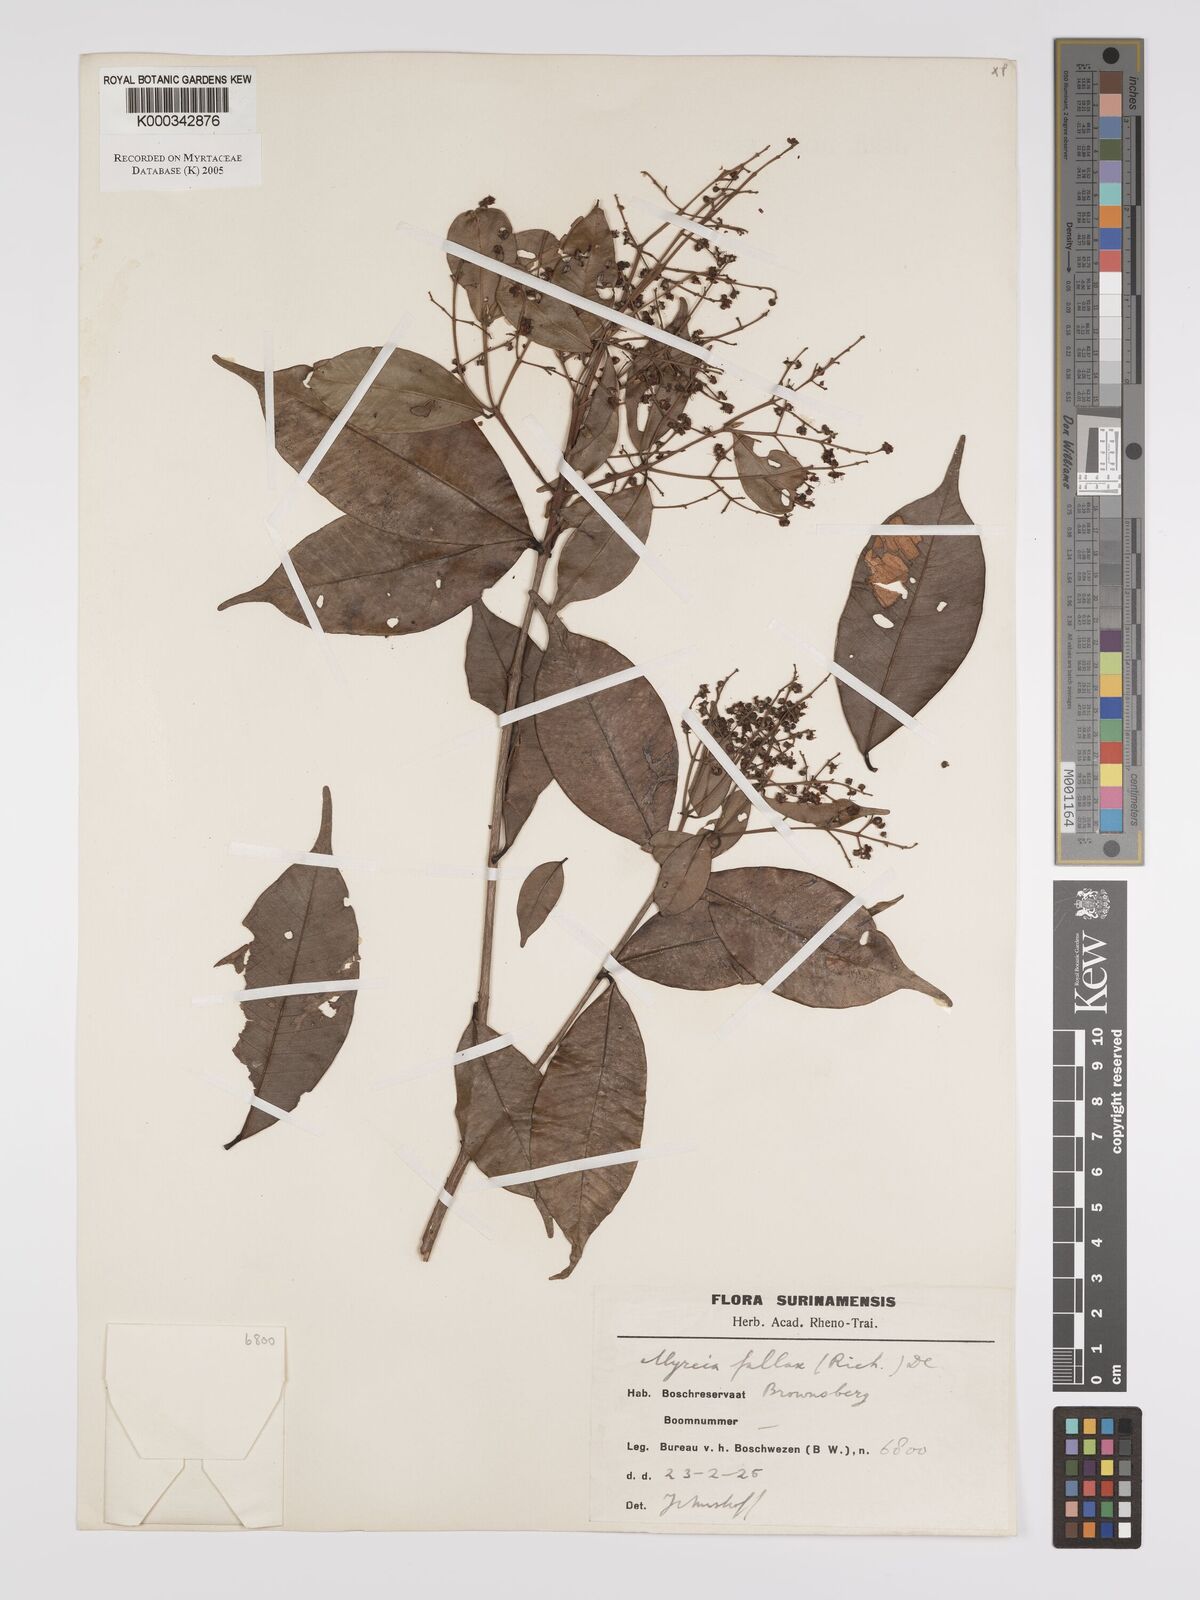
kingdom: Plantae
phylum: Tracheophyta
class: Magnoliopsida
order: Myrtales
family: Myrtaceae
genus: Myrcia
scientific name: Myrcia splendens
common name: Surinam cherry
